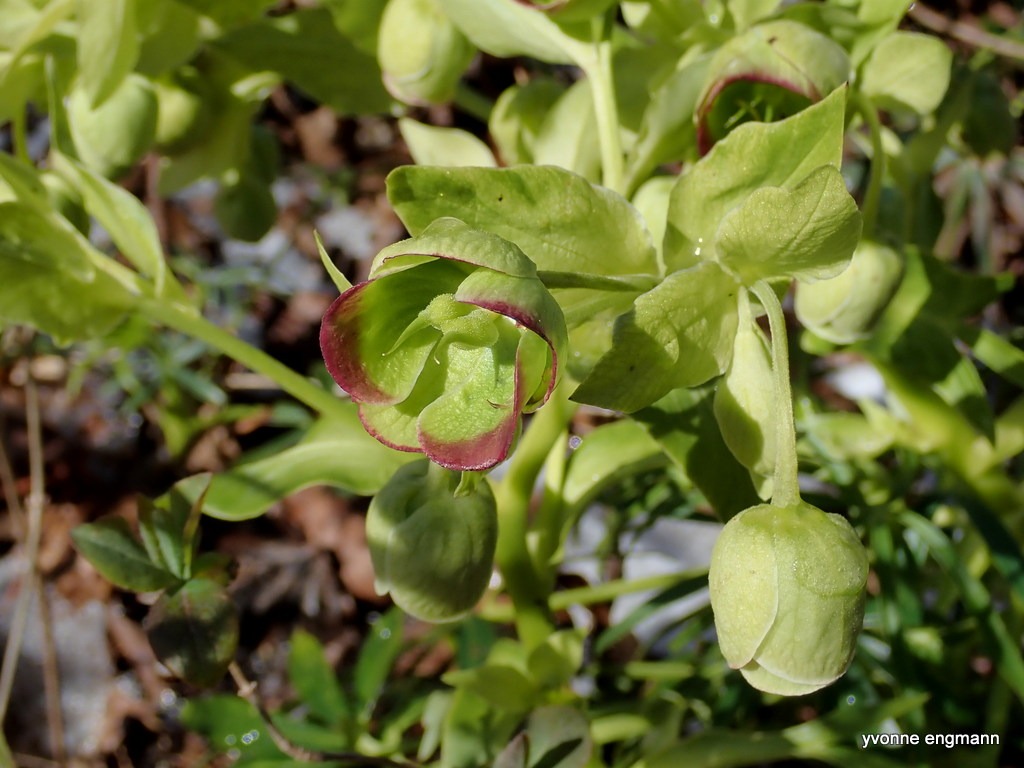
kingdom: Plantae
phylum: Tracheophyta
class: Magnoliopsida
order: Ranunculales
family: Ranunculaceae
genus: Helleborus
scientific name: Helleborus foetidus
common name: Stinkende julerose
